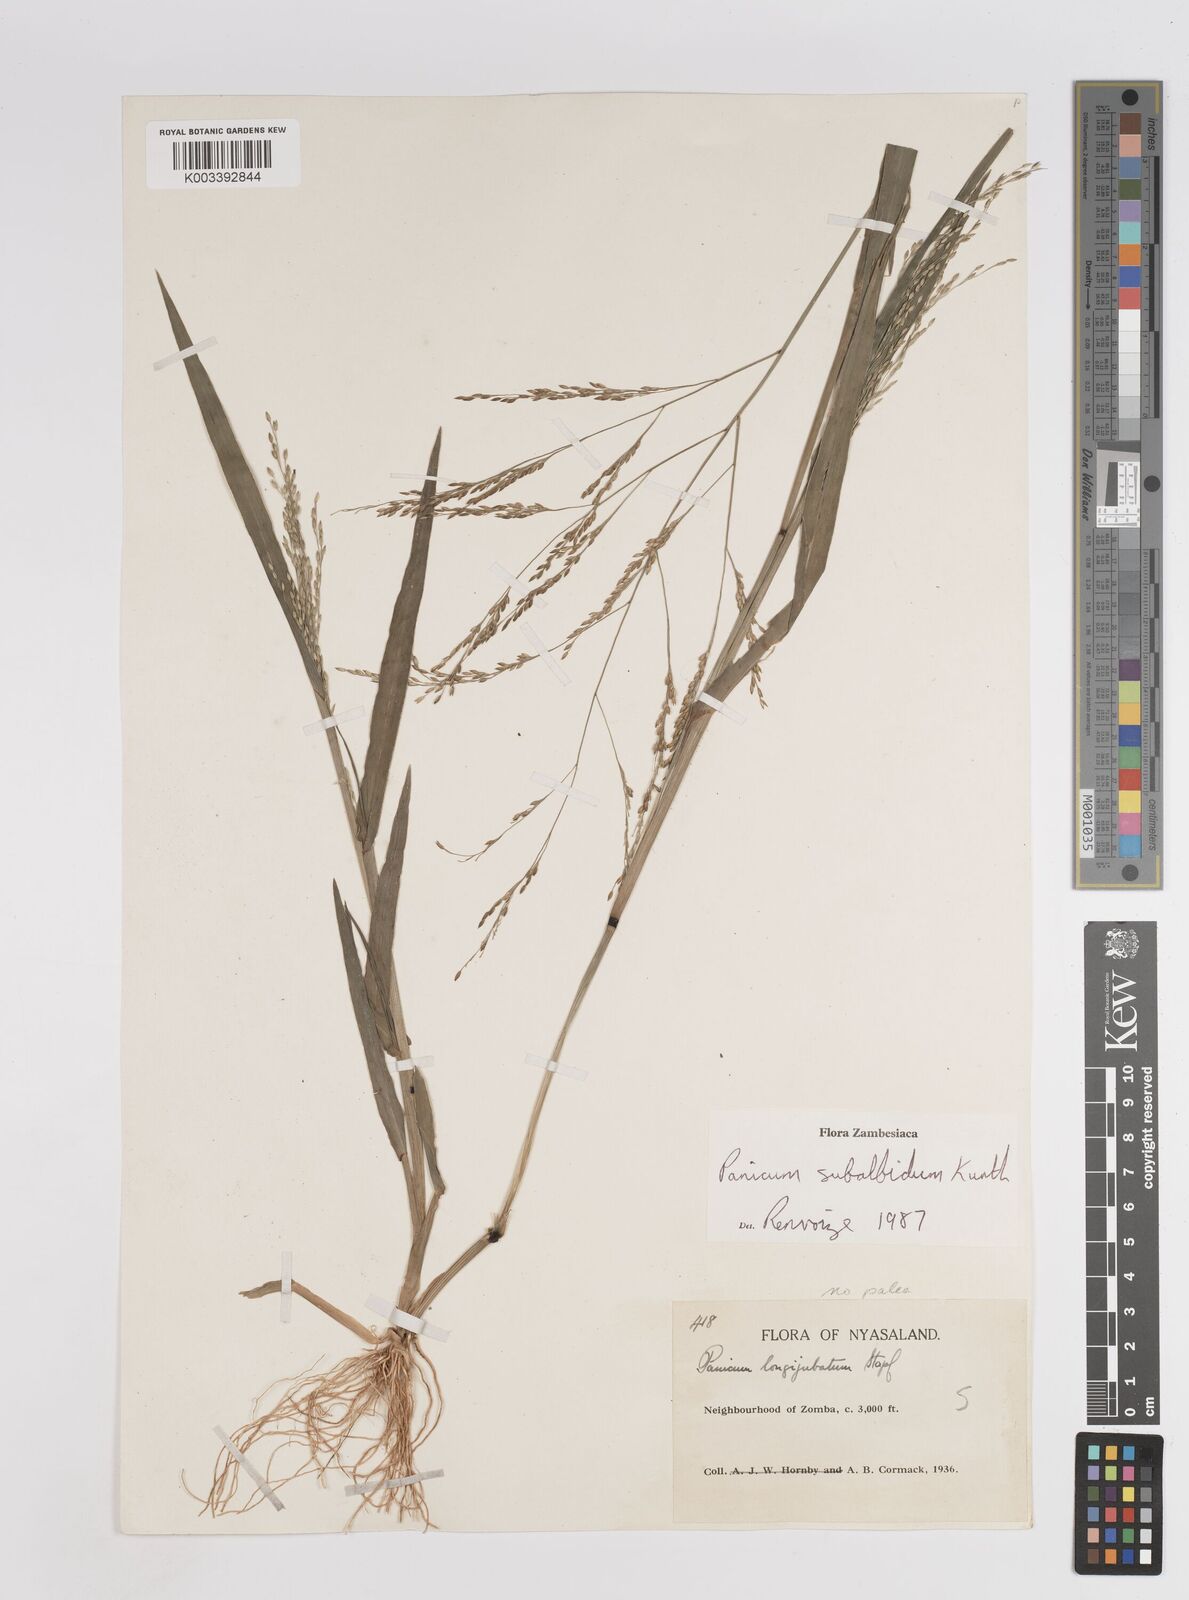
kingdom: Plantae
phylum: Tracheophyta
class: Liliopsida
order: Poales
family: Poaceae
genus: Panicum
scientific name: Panicum subalbidum
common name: Elbow buffalo grass
